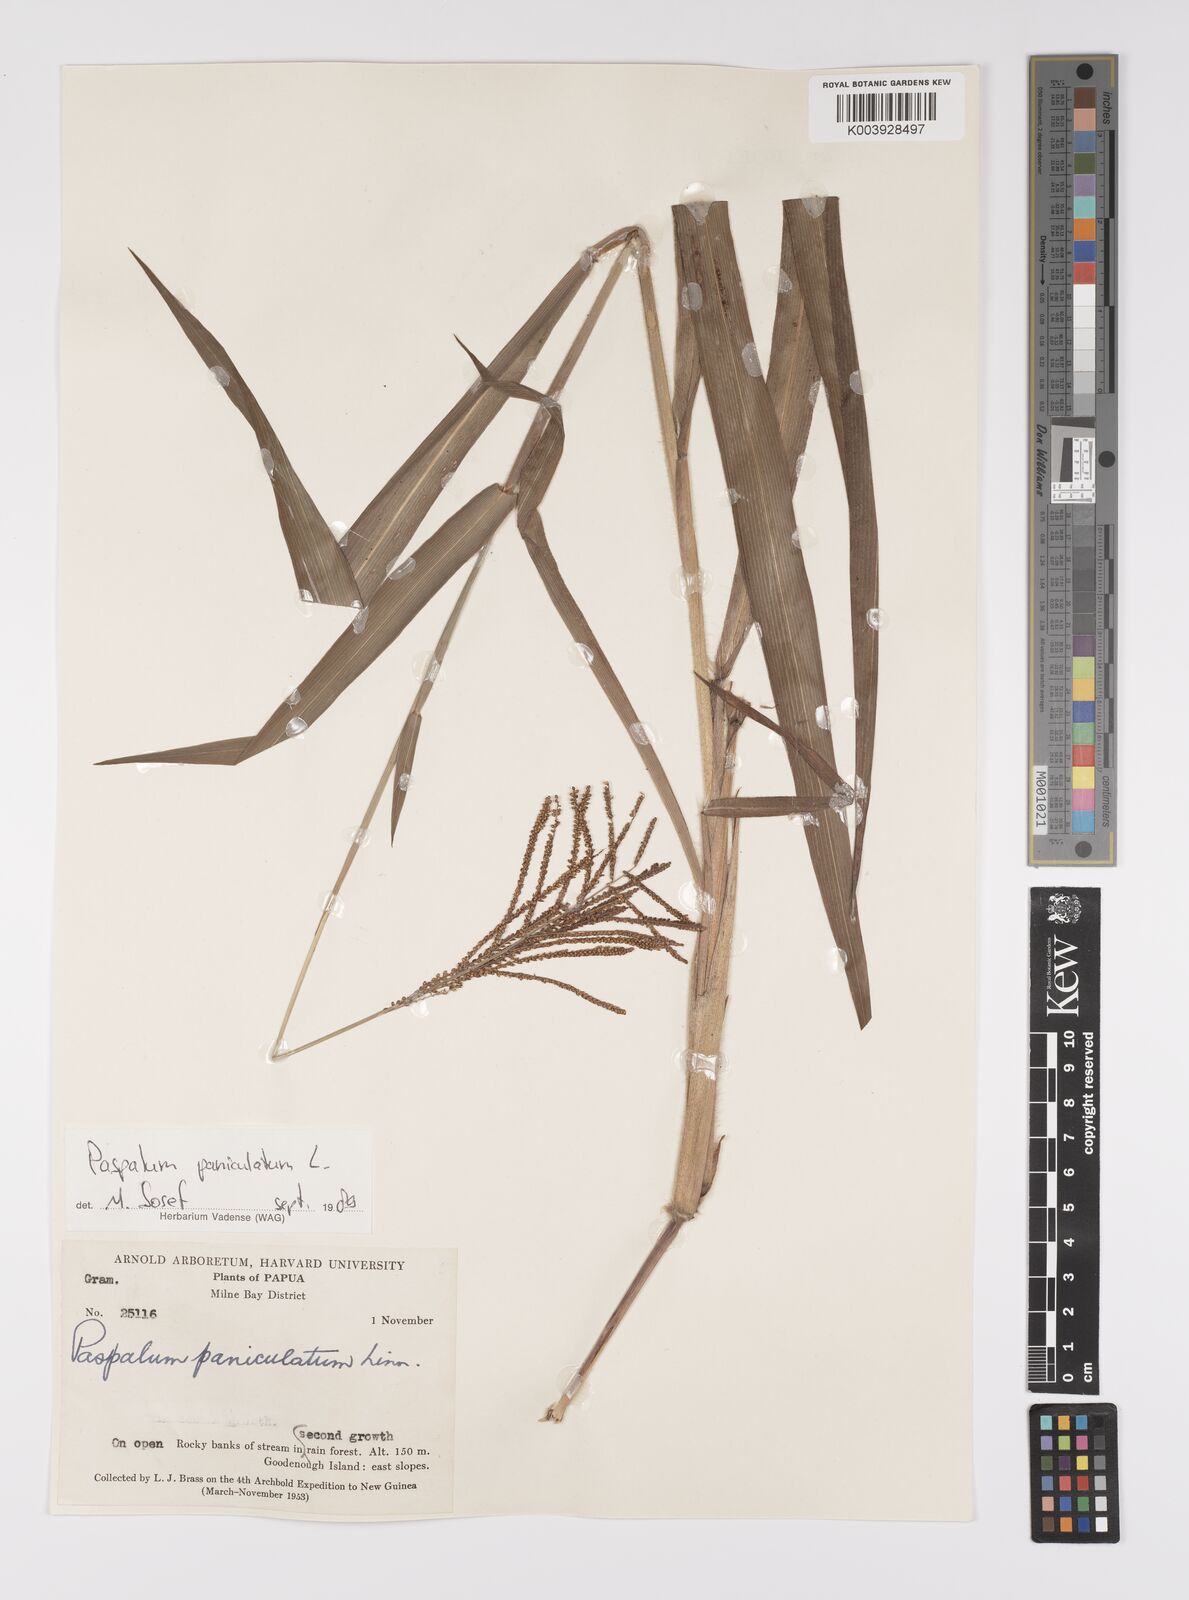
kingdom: Plantae
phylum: Tracheophyta
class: Liliopsida
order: Poales
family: Poaceae
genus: Paspalum
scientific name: Paspalum paniculatum
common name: Arrocillo
